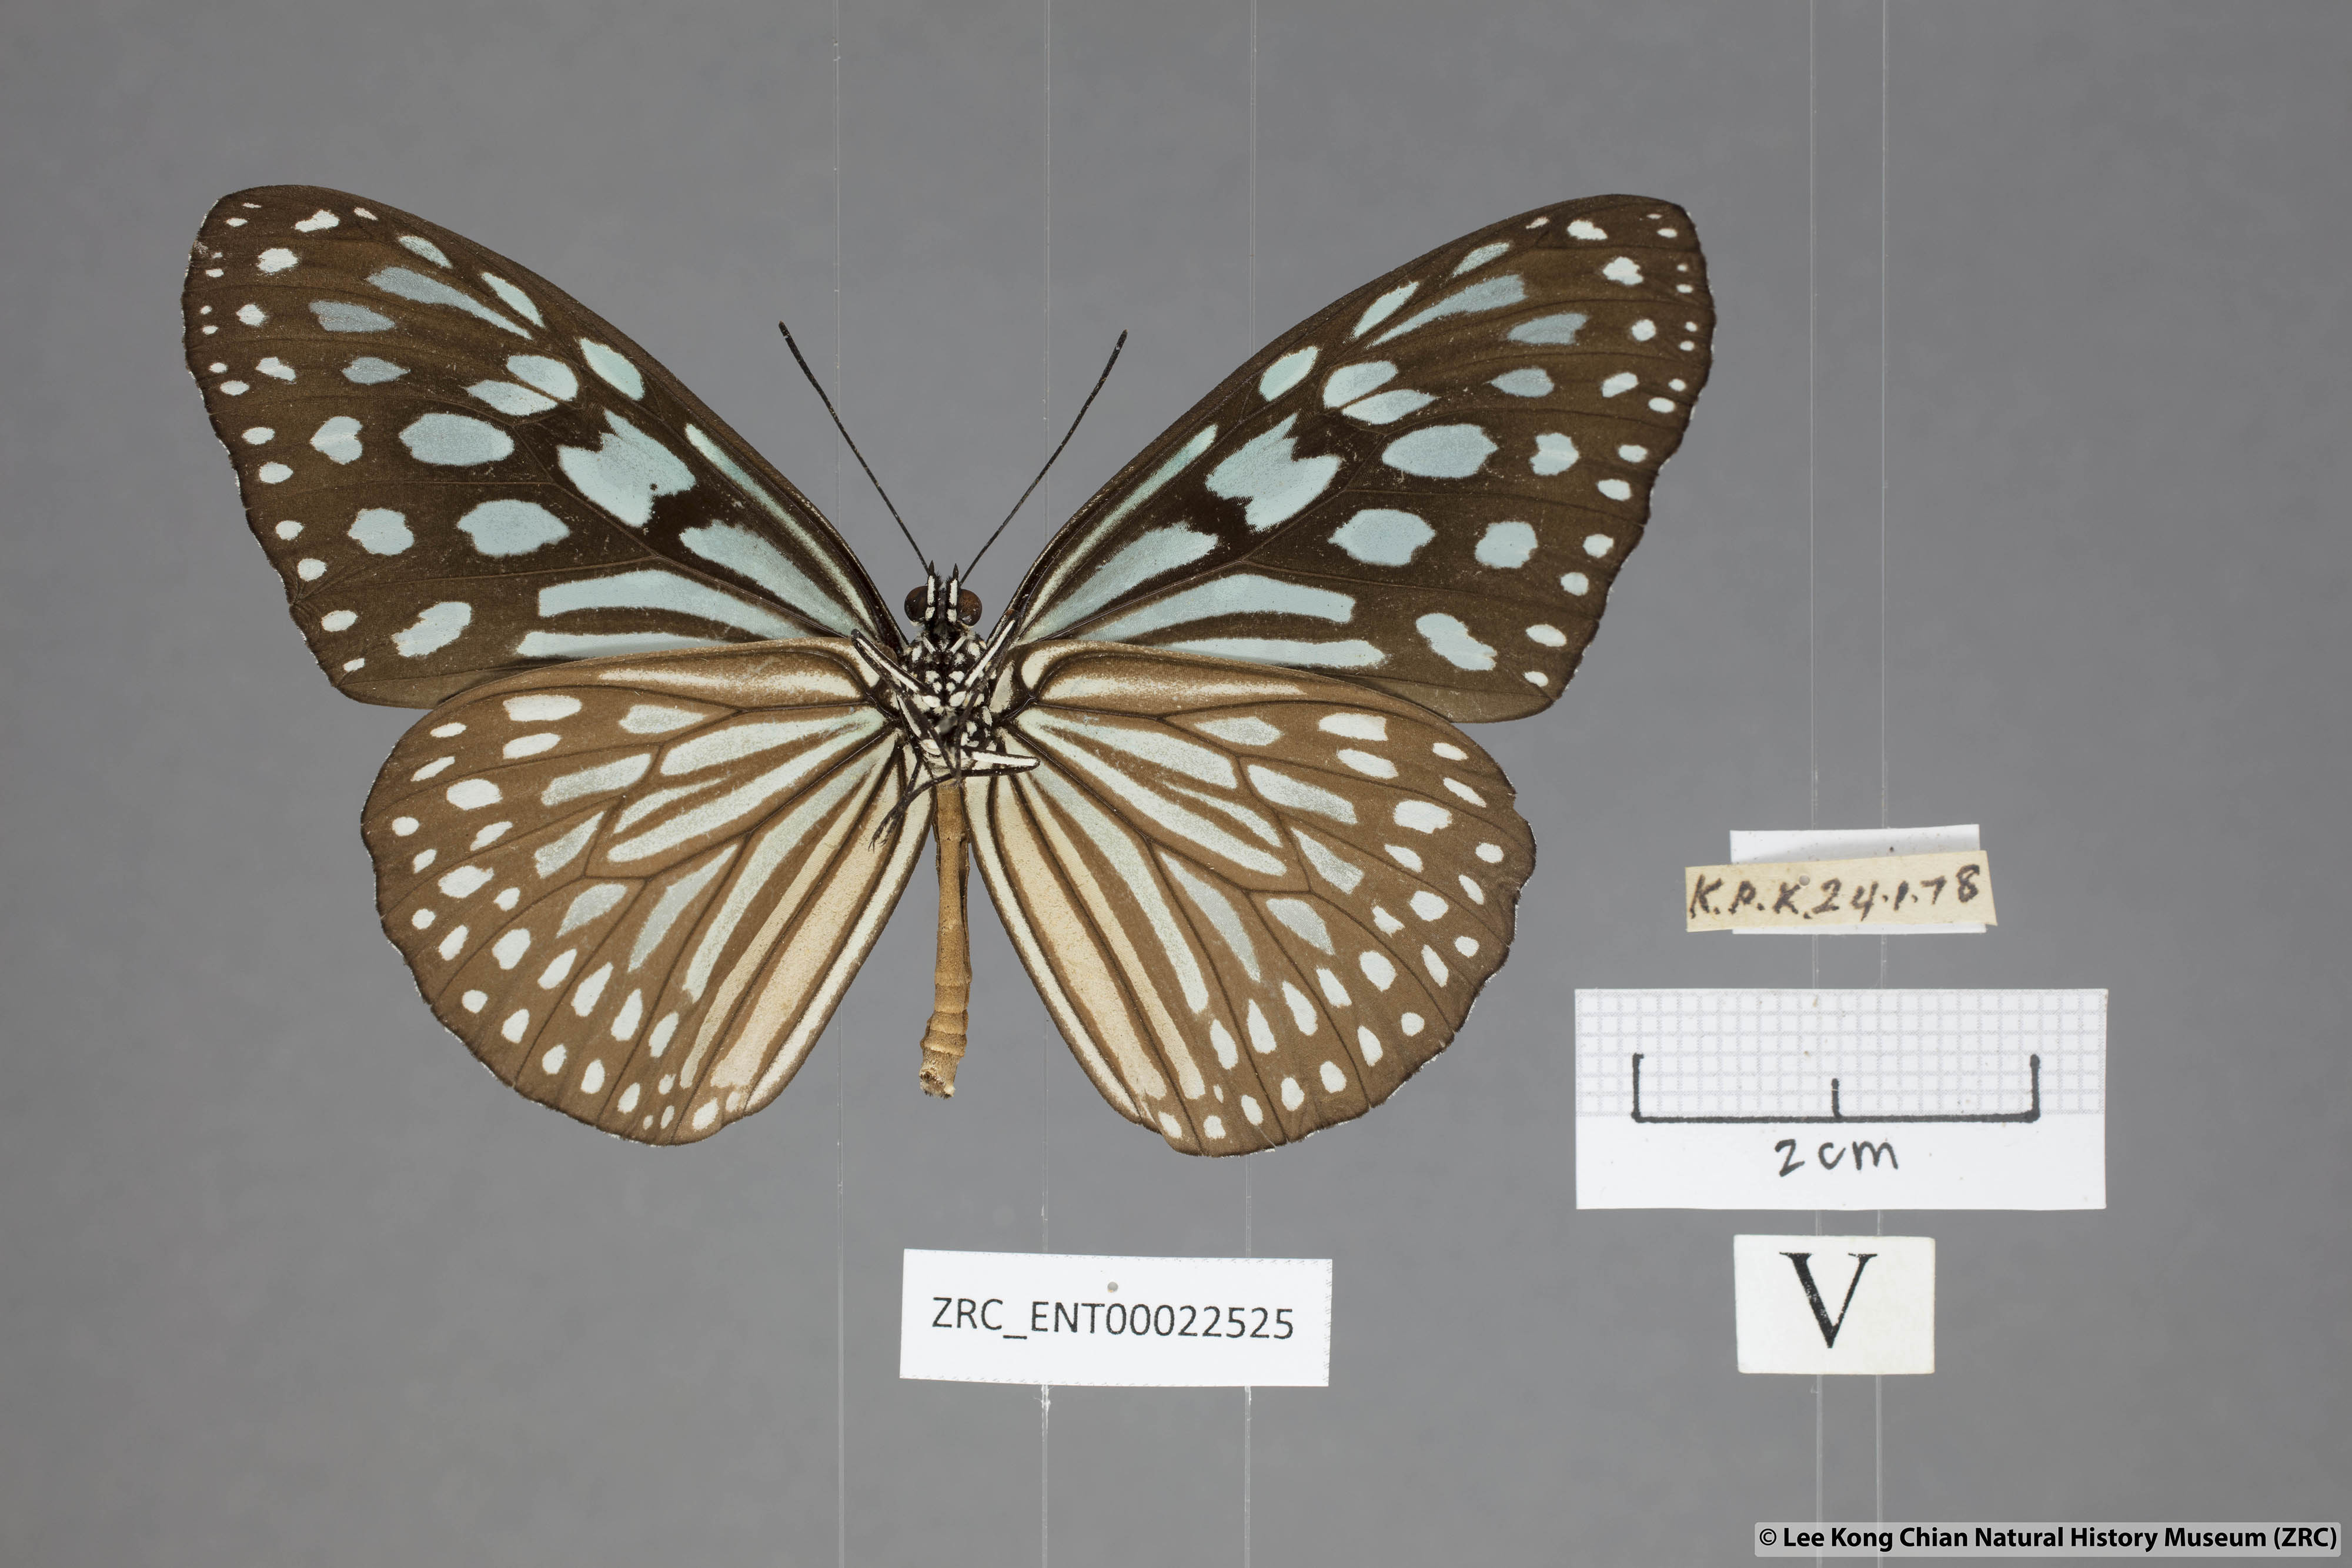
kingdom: Animalia
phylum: Arthropoda
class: Insecta
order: Lepidoptera
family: Nymphalidae
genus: Ideopsis
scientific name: Ideopsis similis
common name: Ceylon blue glassy tiger
